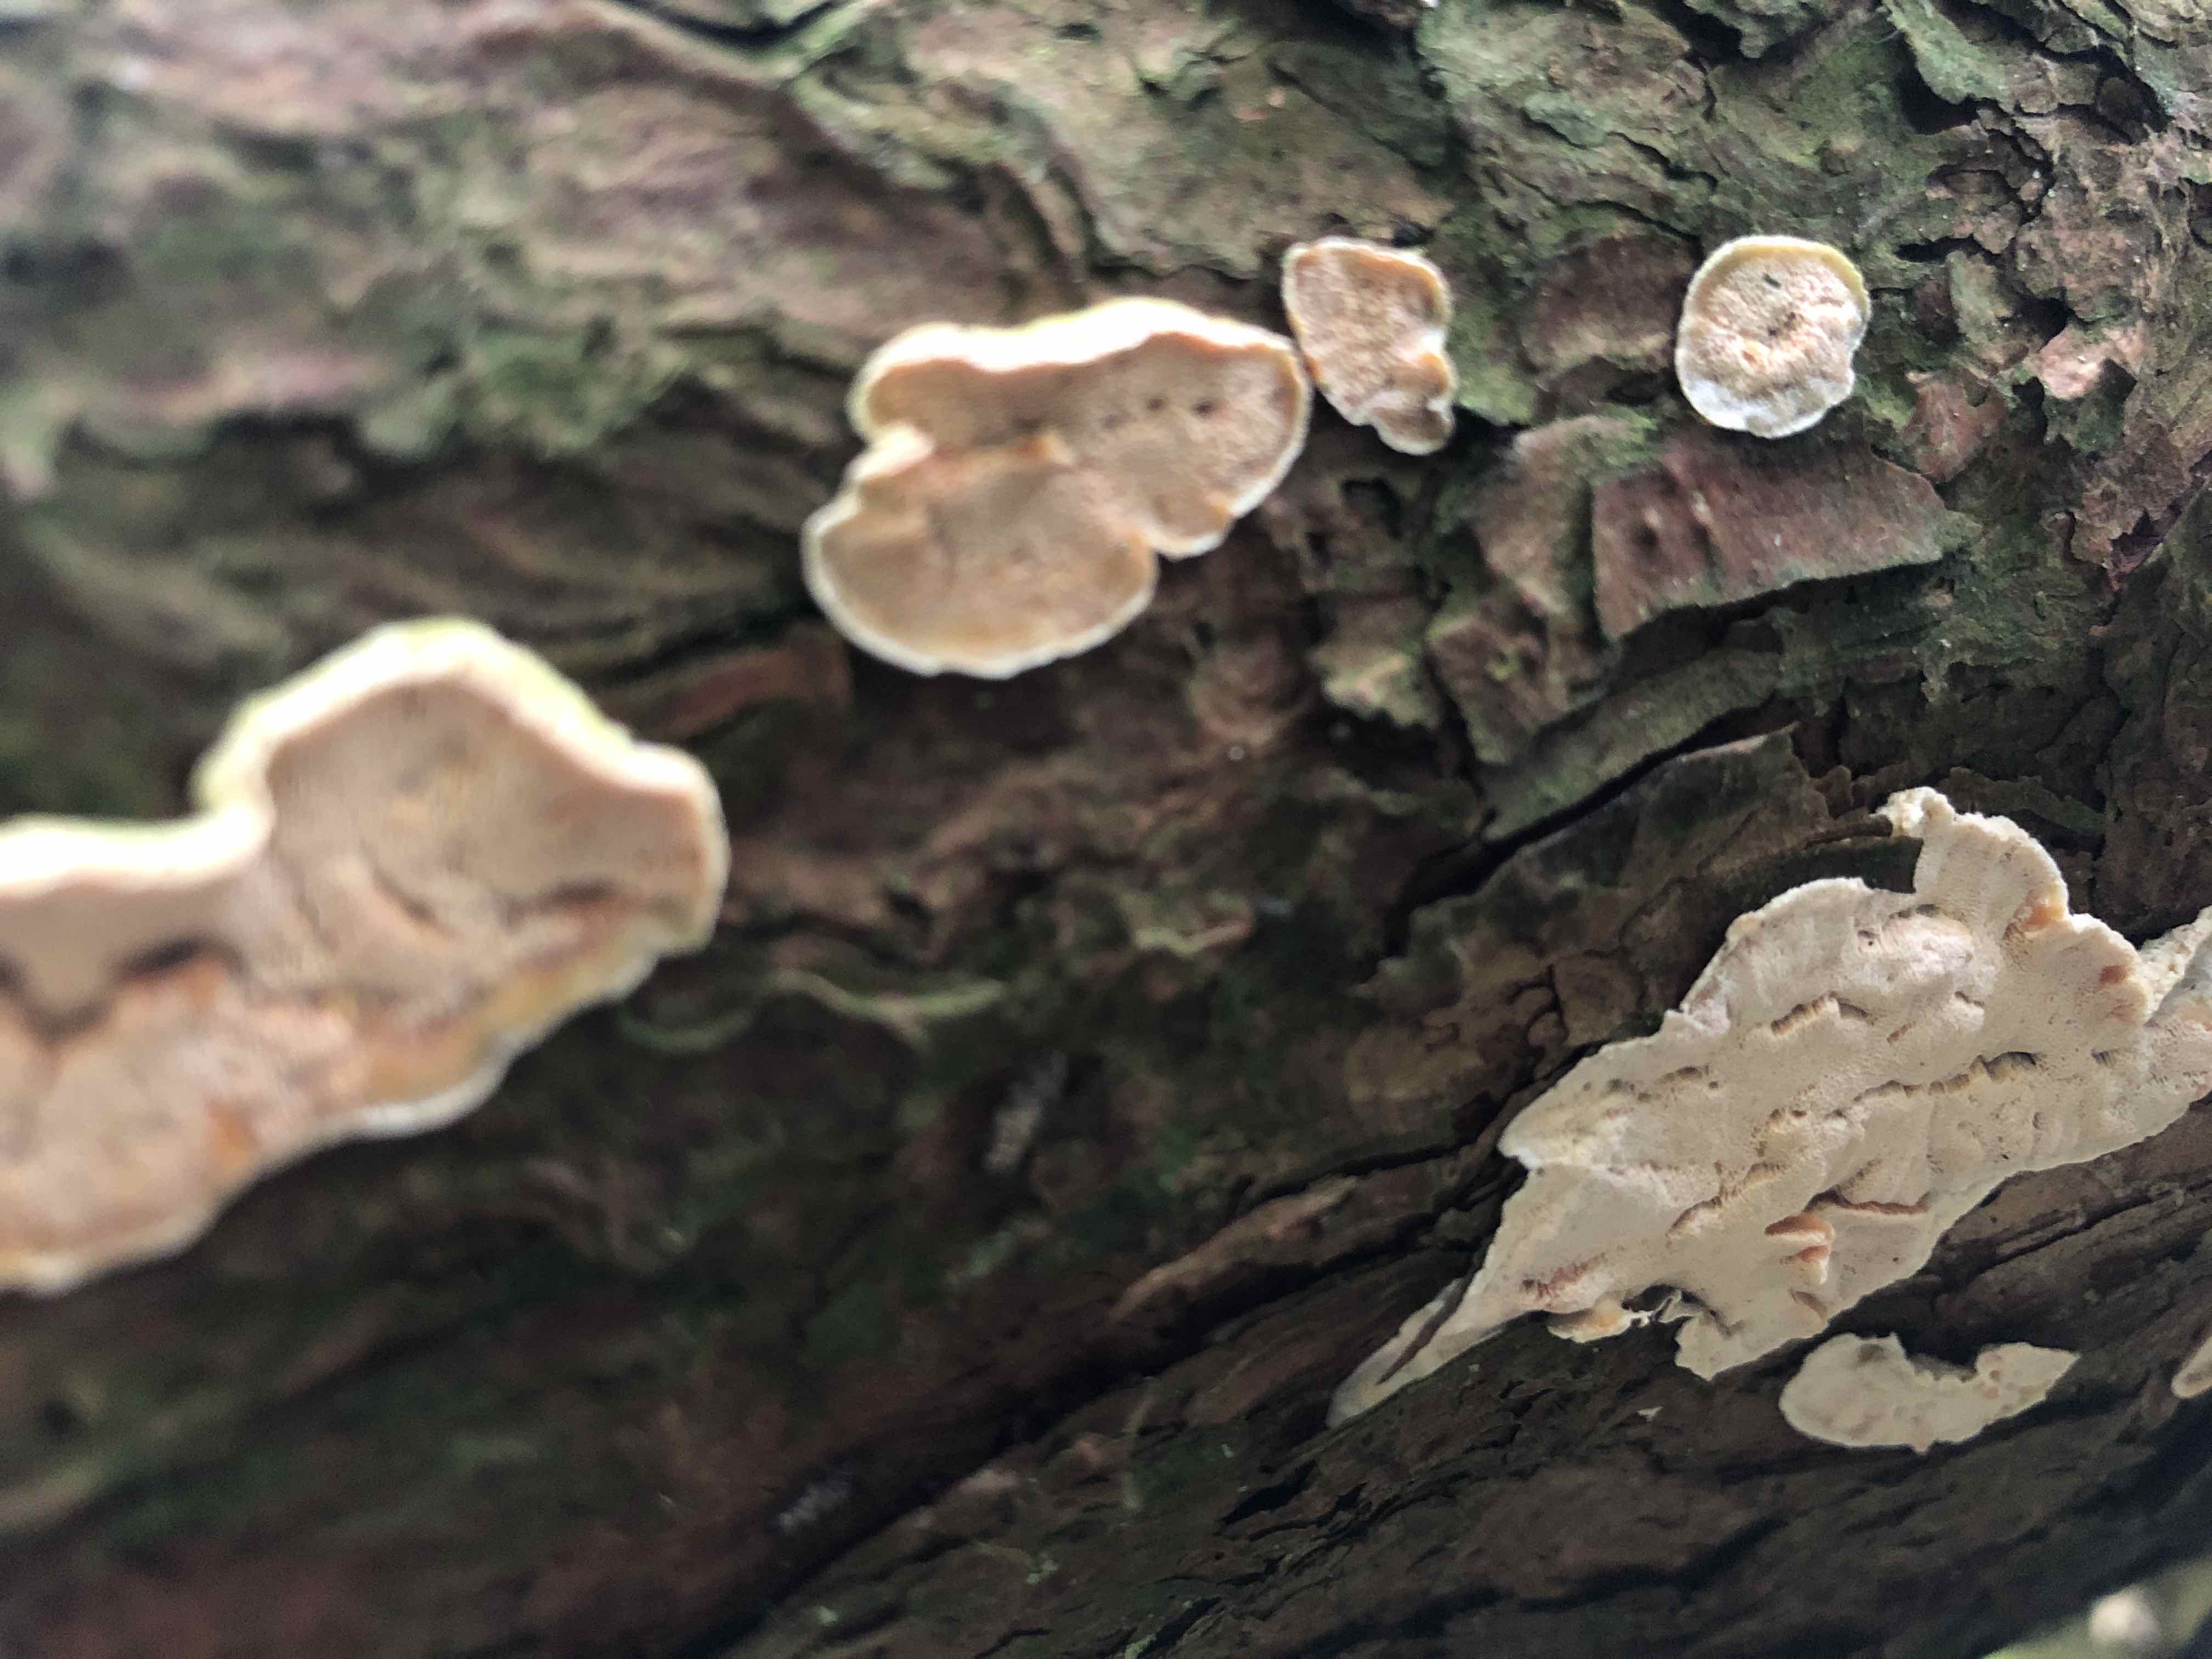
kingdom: Fungi
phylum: Basidiomycota
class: Agaricomycetes
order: Polyporales
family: Incrustoporiaceae
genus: Skeletocutis
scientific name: Skeletocutis amorpha
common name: orange krystalporesvamp
